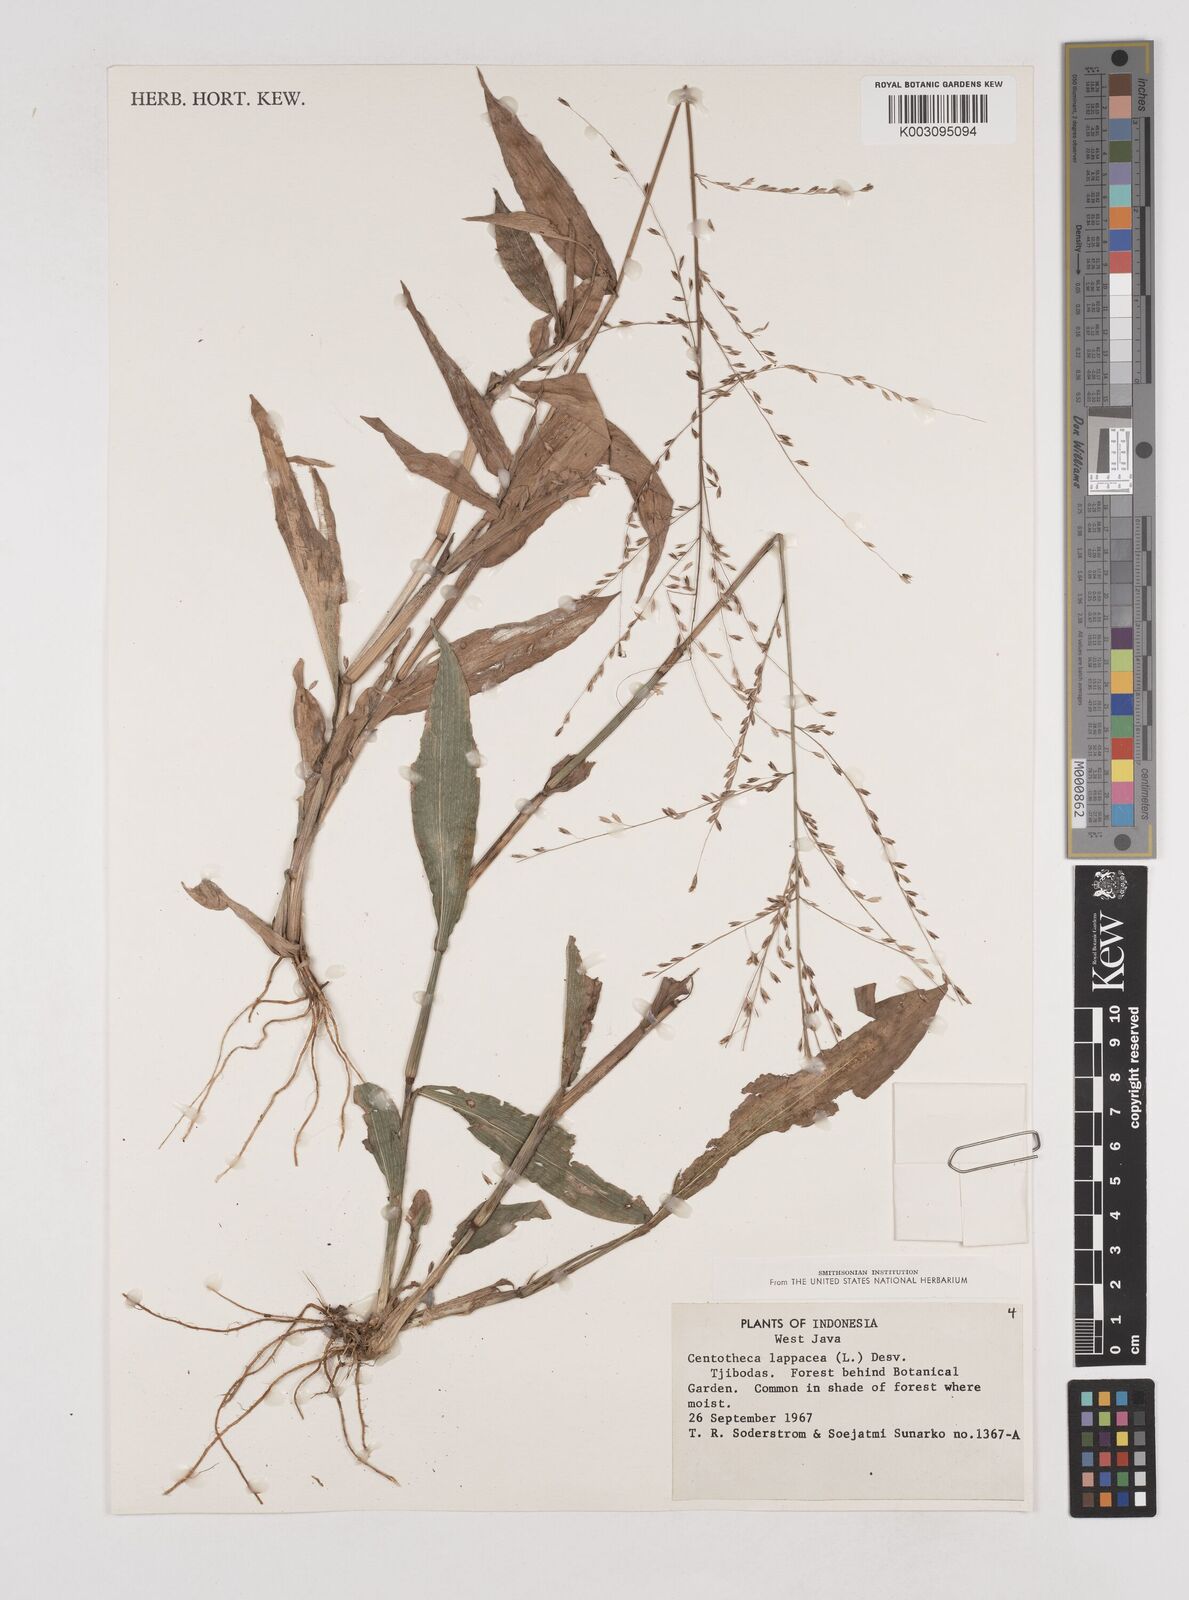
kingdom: Plantae
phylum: Tracheophyta
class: Liliopsida
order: Poales
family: Poaceae
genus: Centotheca
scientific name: Centotheca lappacea
